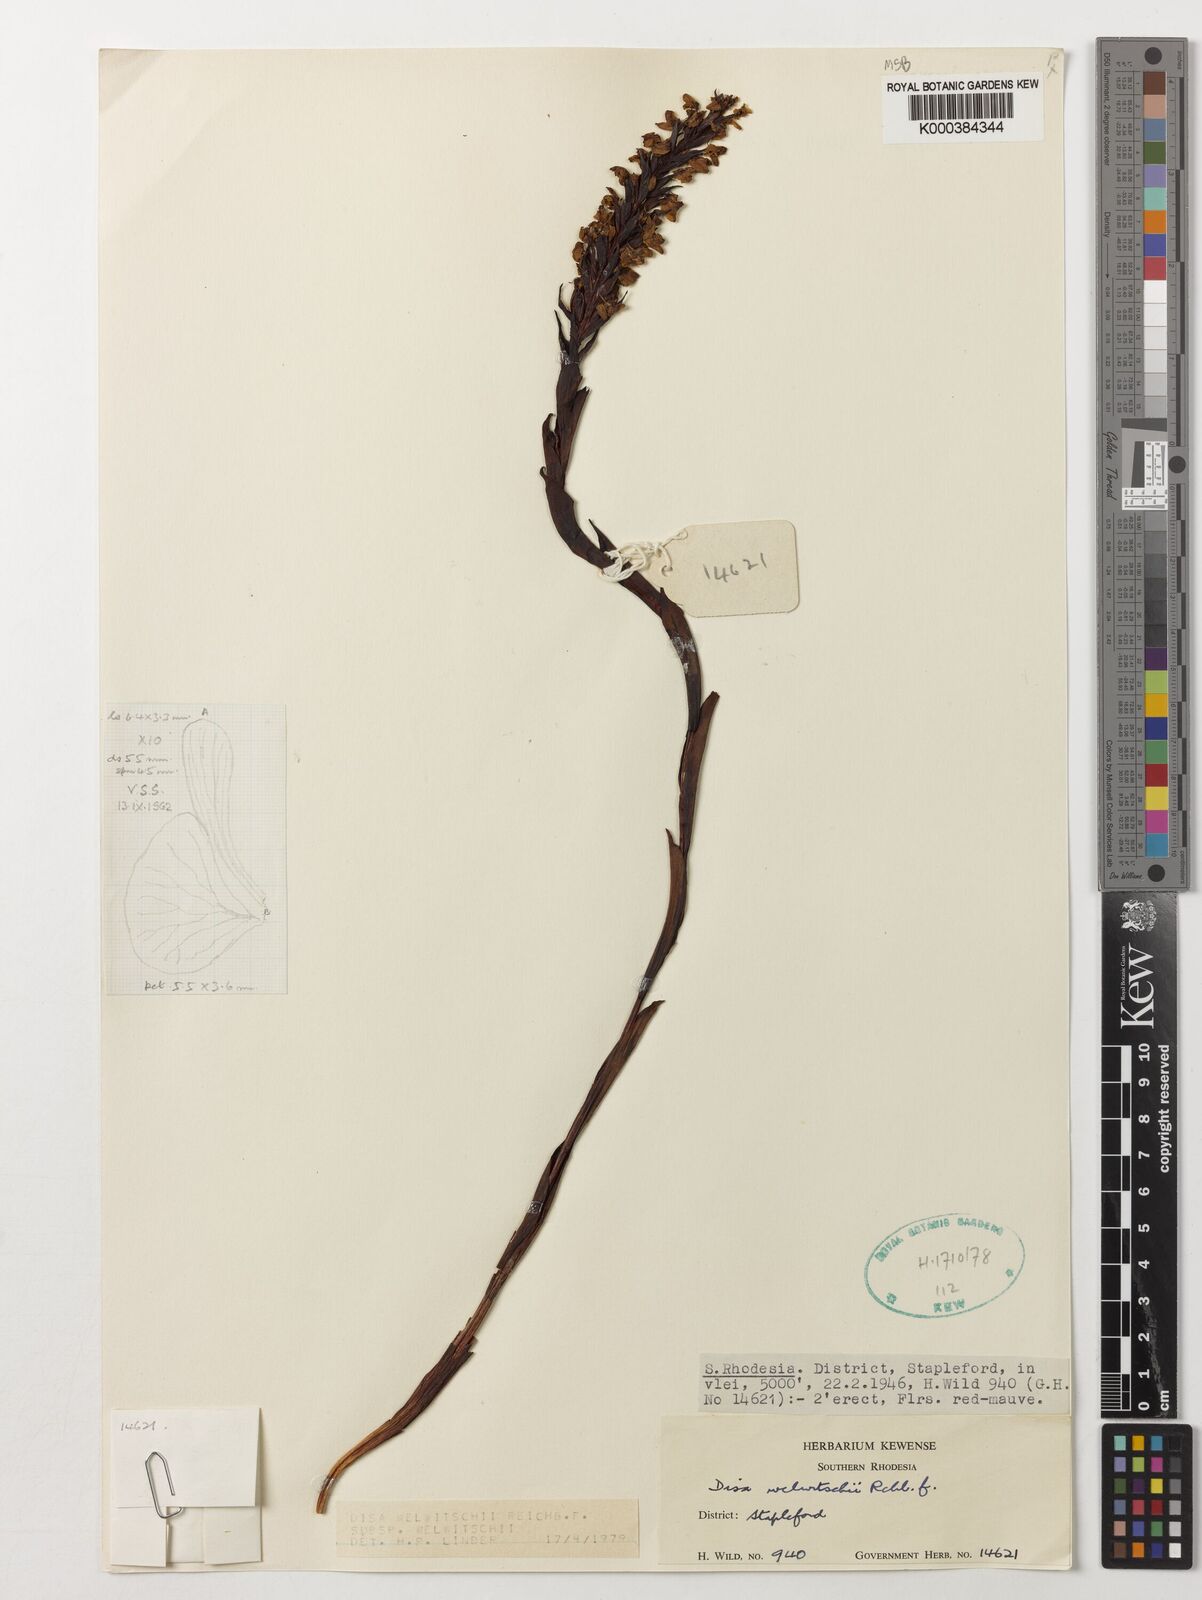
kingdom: Plantae
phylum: Tracheophyta
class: Liliopsida
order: Asparagales
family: Orchidaceae
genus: Disa
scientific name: Disa welwitschii
